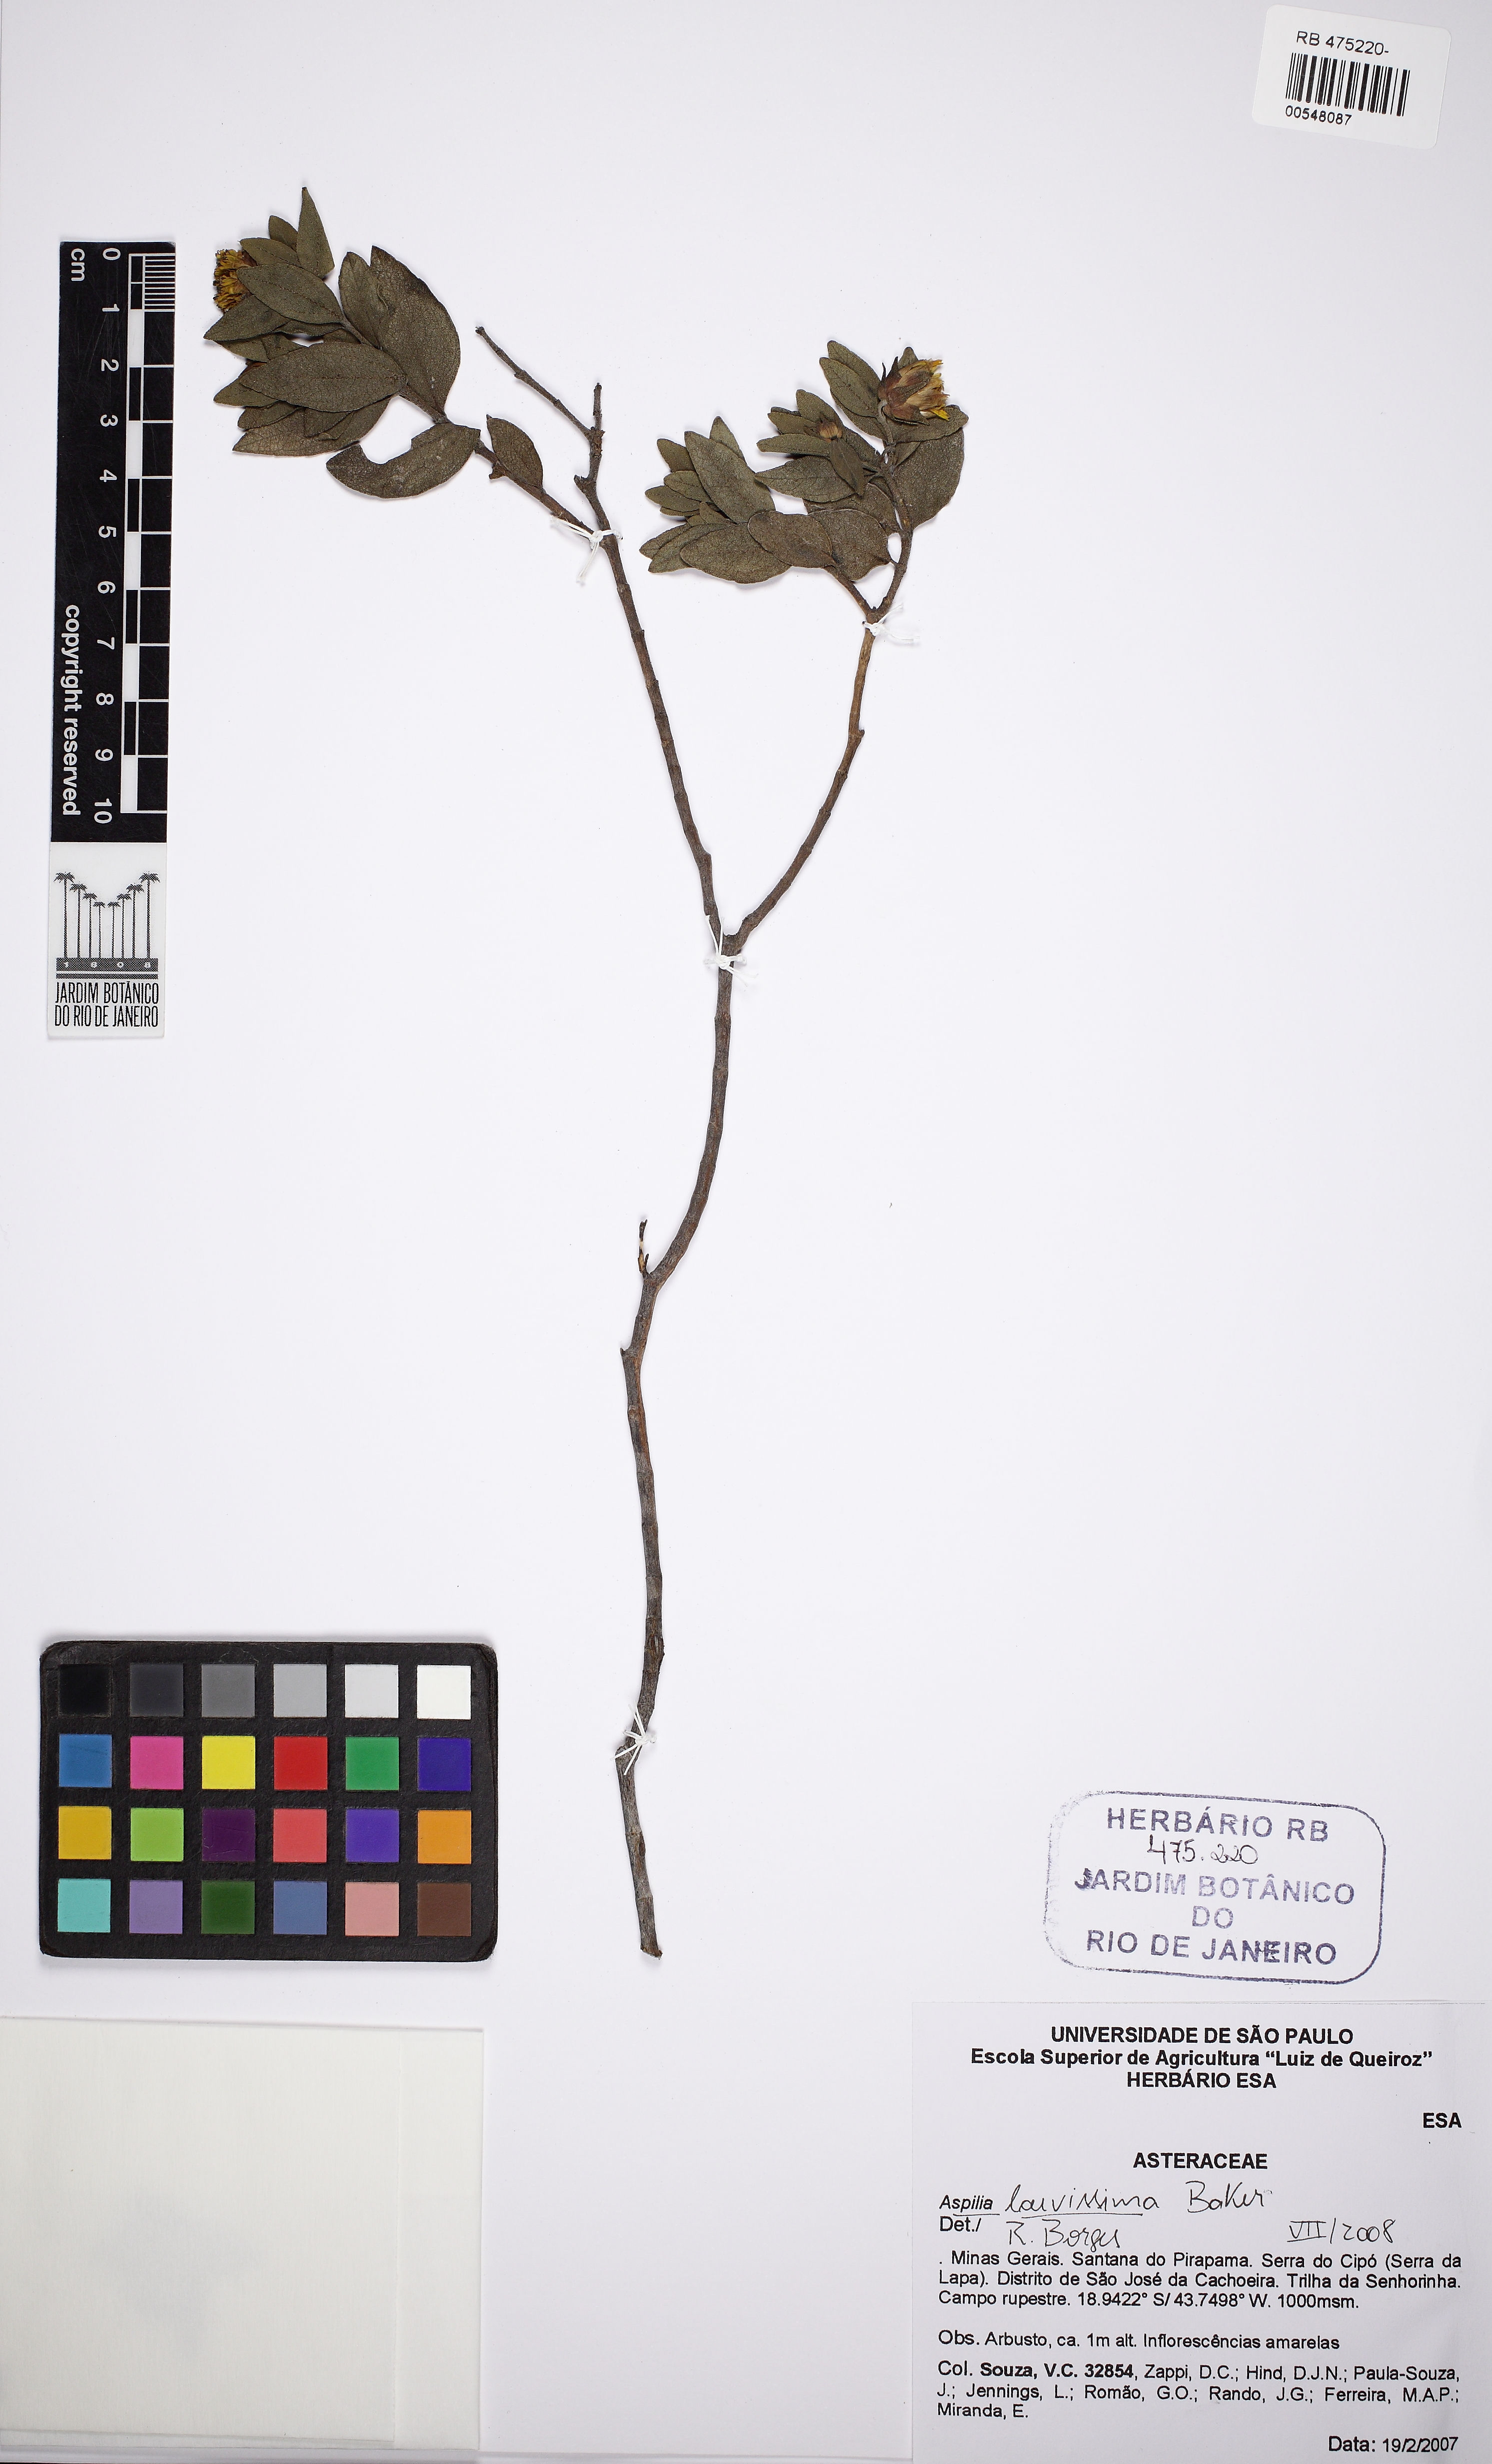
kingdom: Plantae
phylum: Tracheophyta
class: Magnoliopsida
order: Asterales
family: Asteraceae
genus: Wedelia
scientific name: Wedelia laevissima
